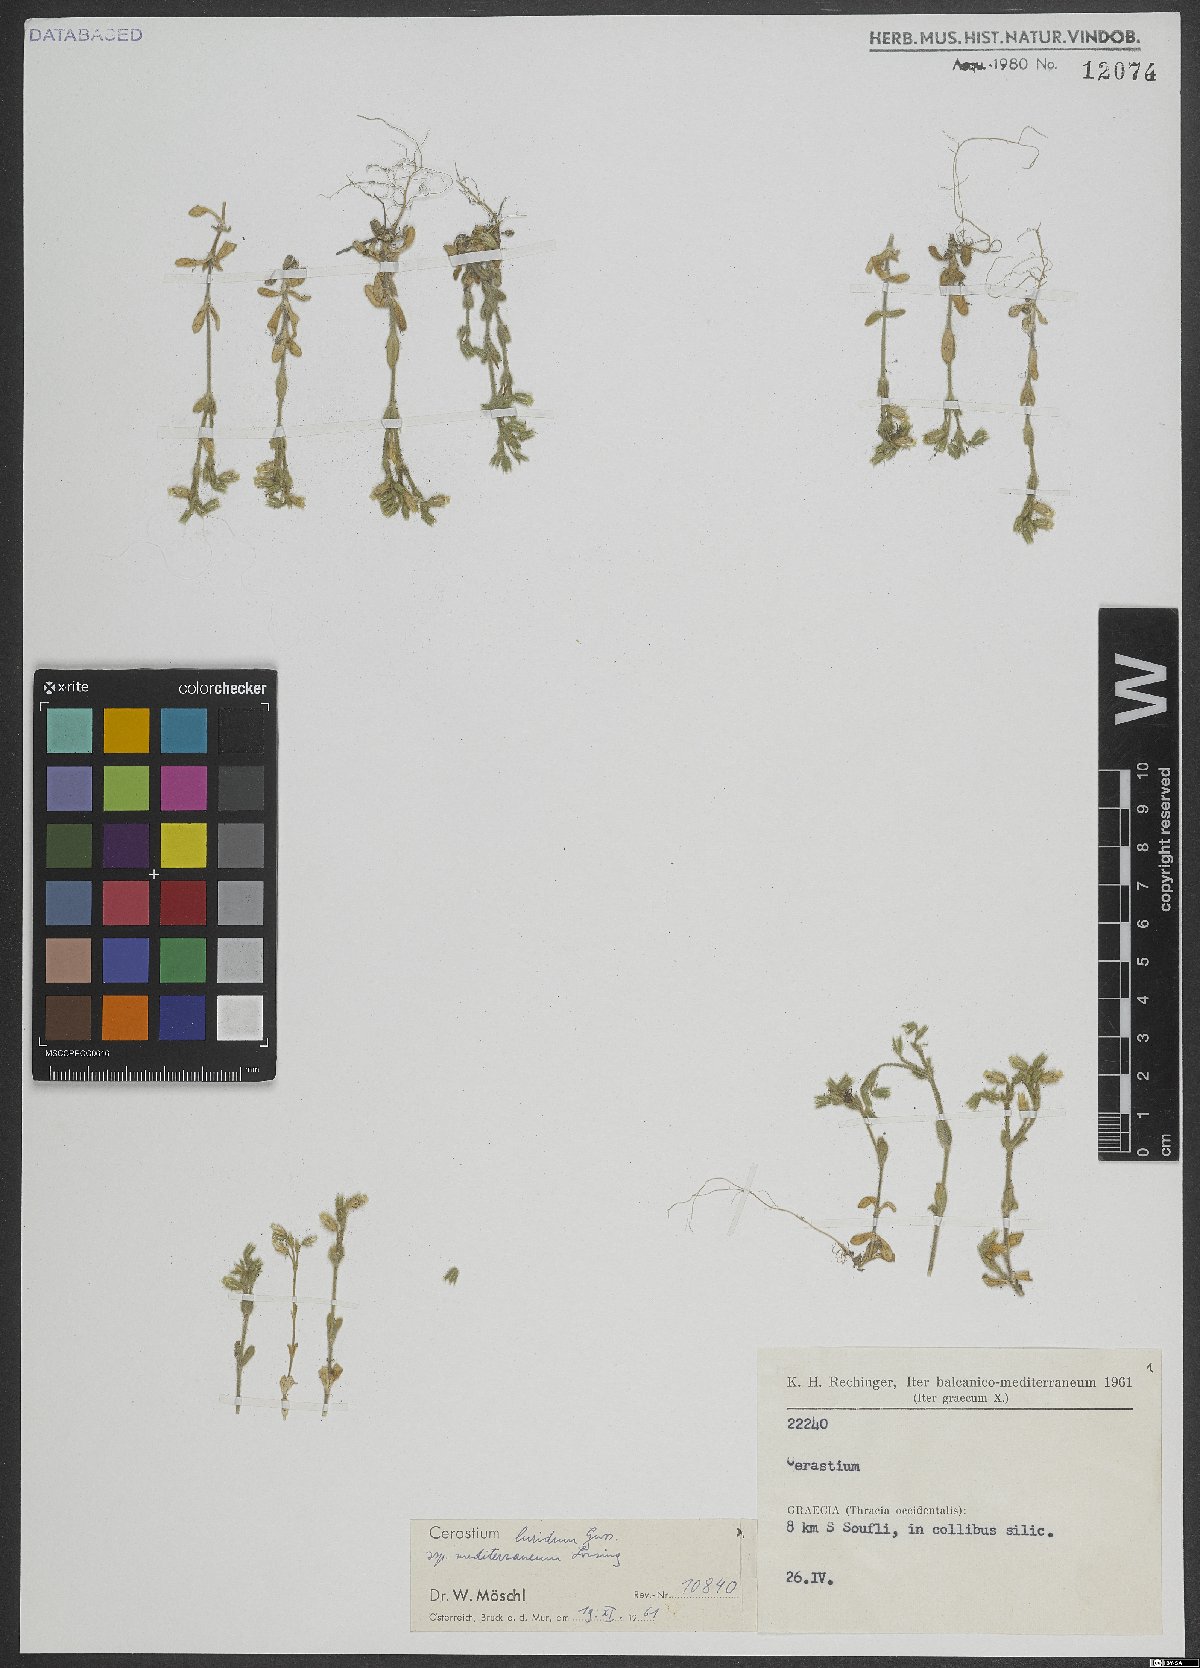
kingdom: Plantae
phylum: Tracheophyta
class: Magnoliopsida
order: Caryophyllales
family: Caryophyllaceae
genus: Cerastium
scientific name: Cerastium brachypetalum
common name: Grey mouse-ear
